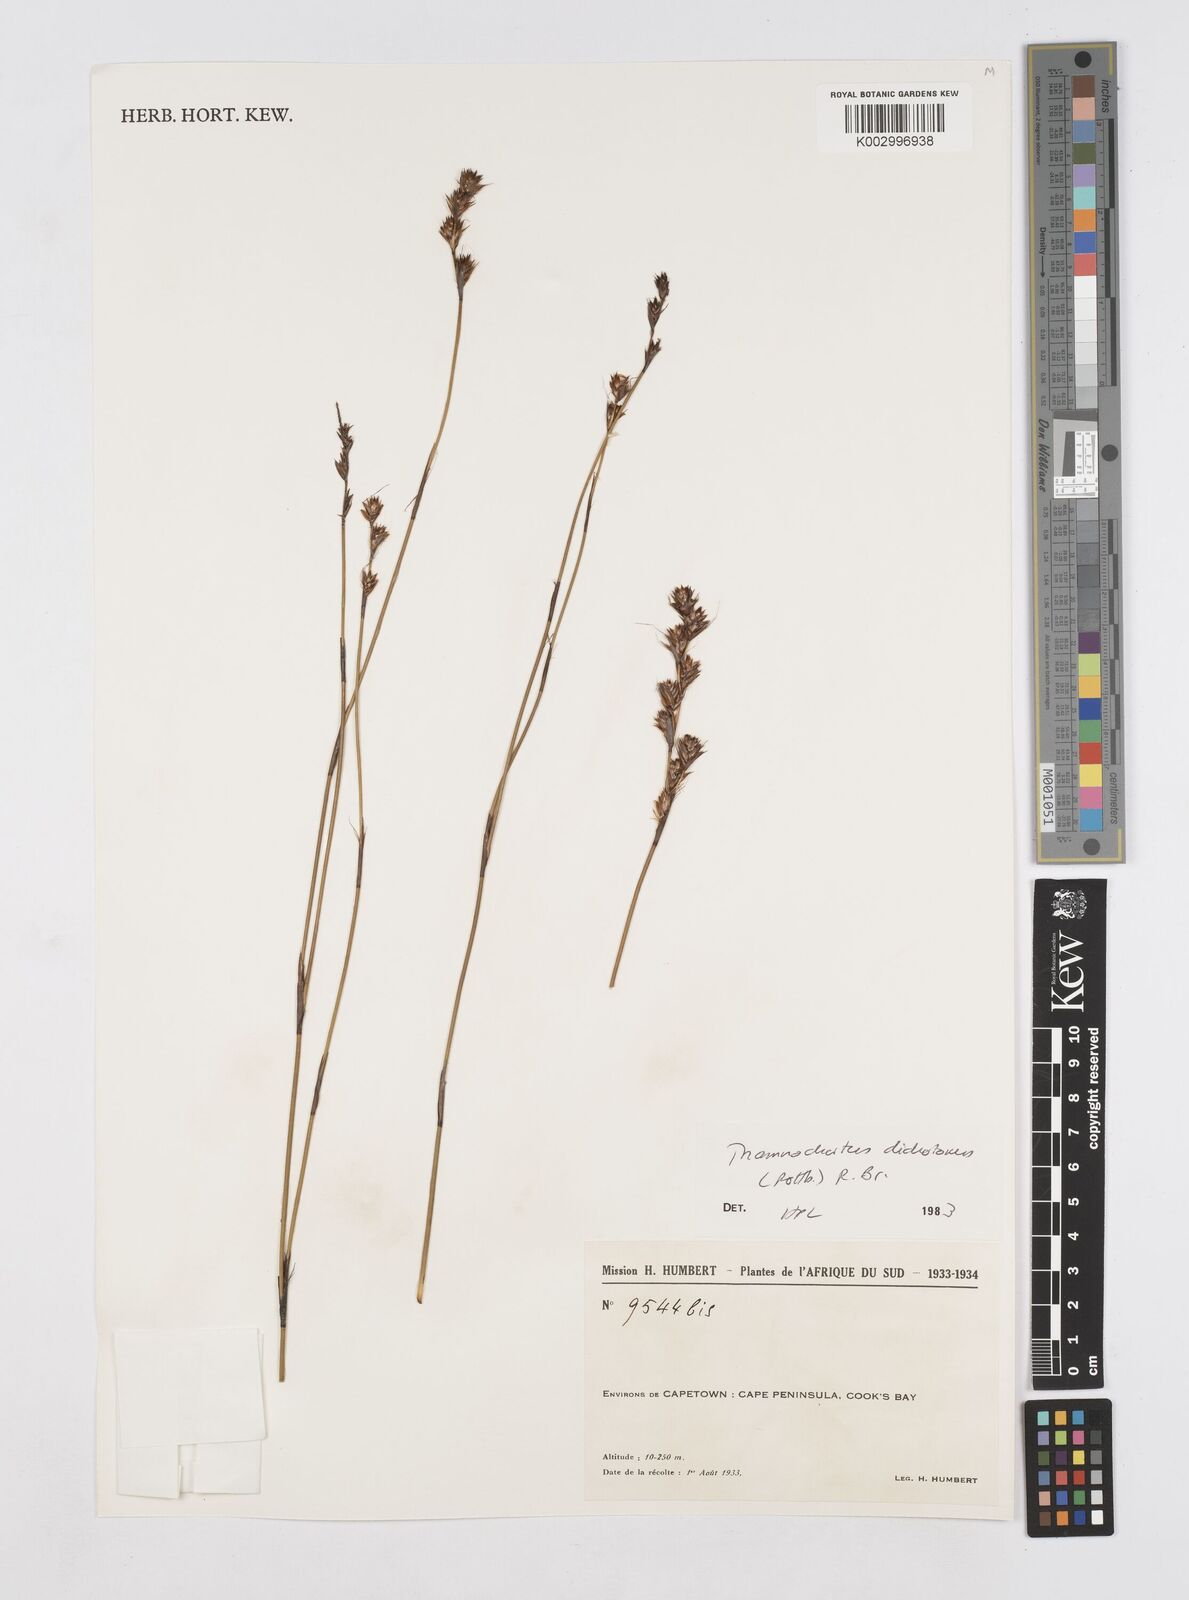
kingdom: Plantae
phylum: Tracheophyta
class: Liliopsida
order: Poales
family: Restionaceae
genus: Thamnochortus
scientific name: Thamnochortus lucens
